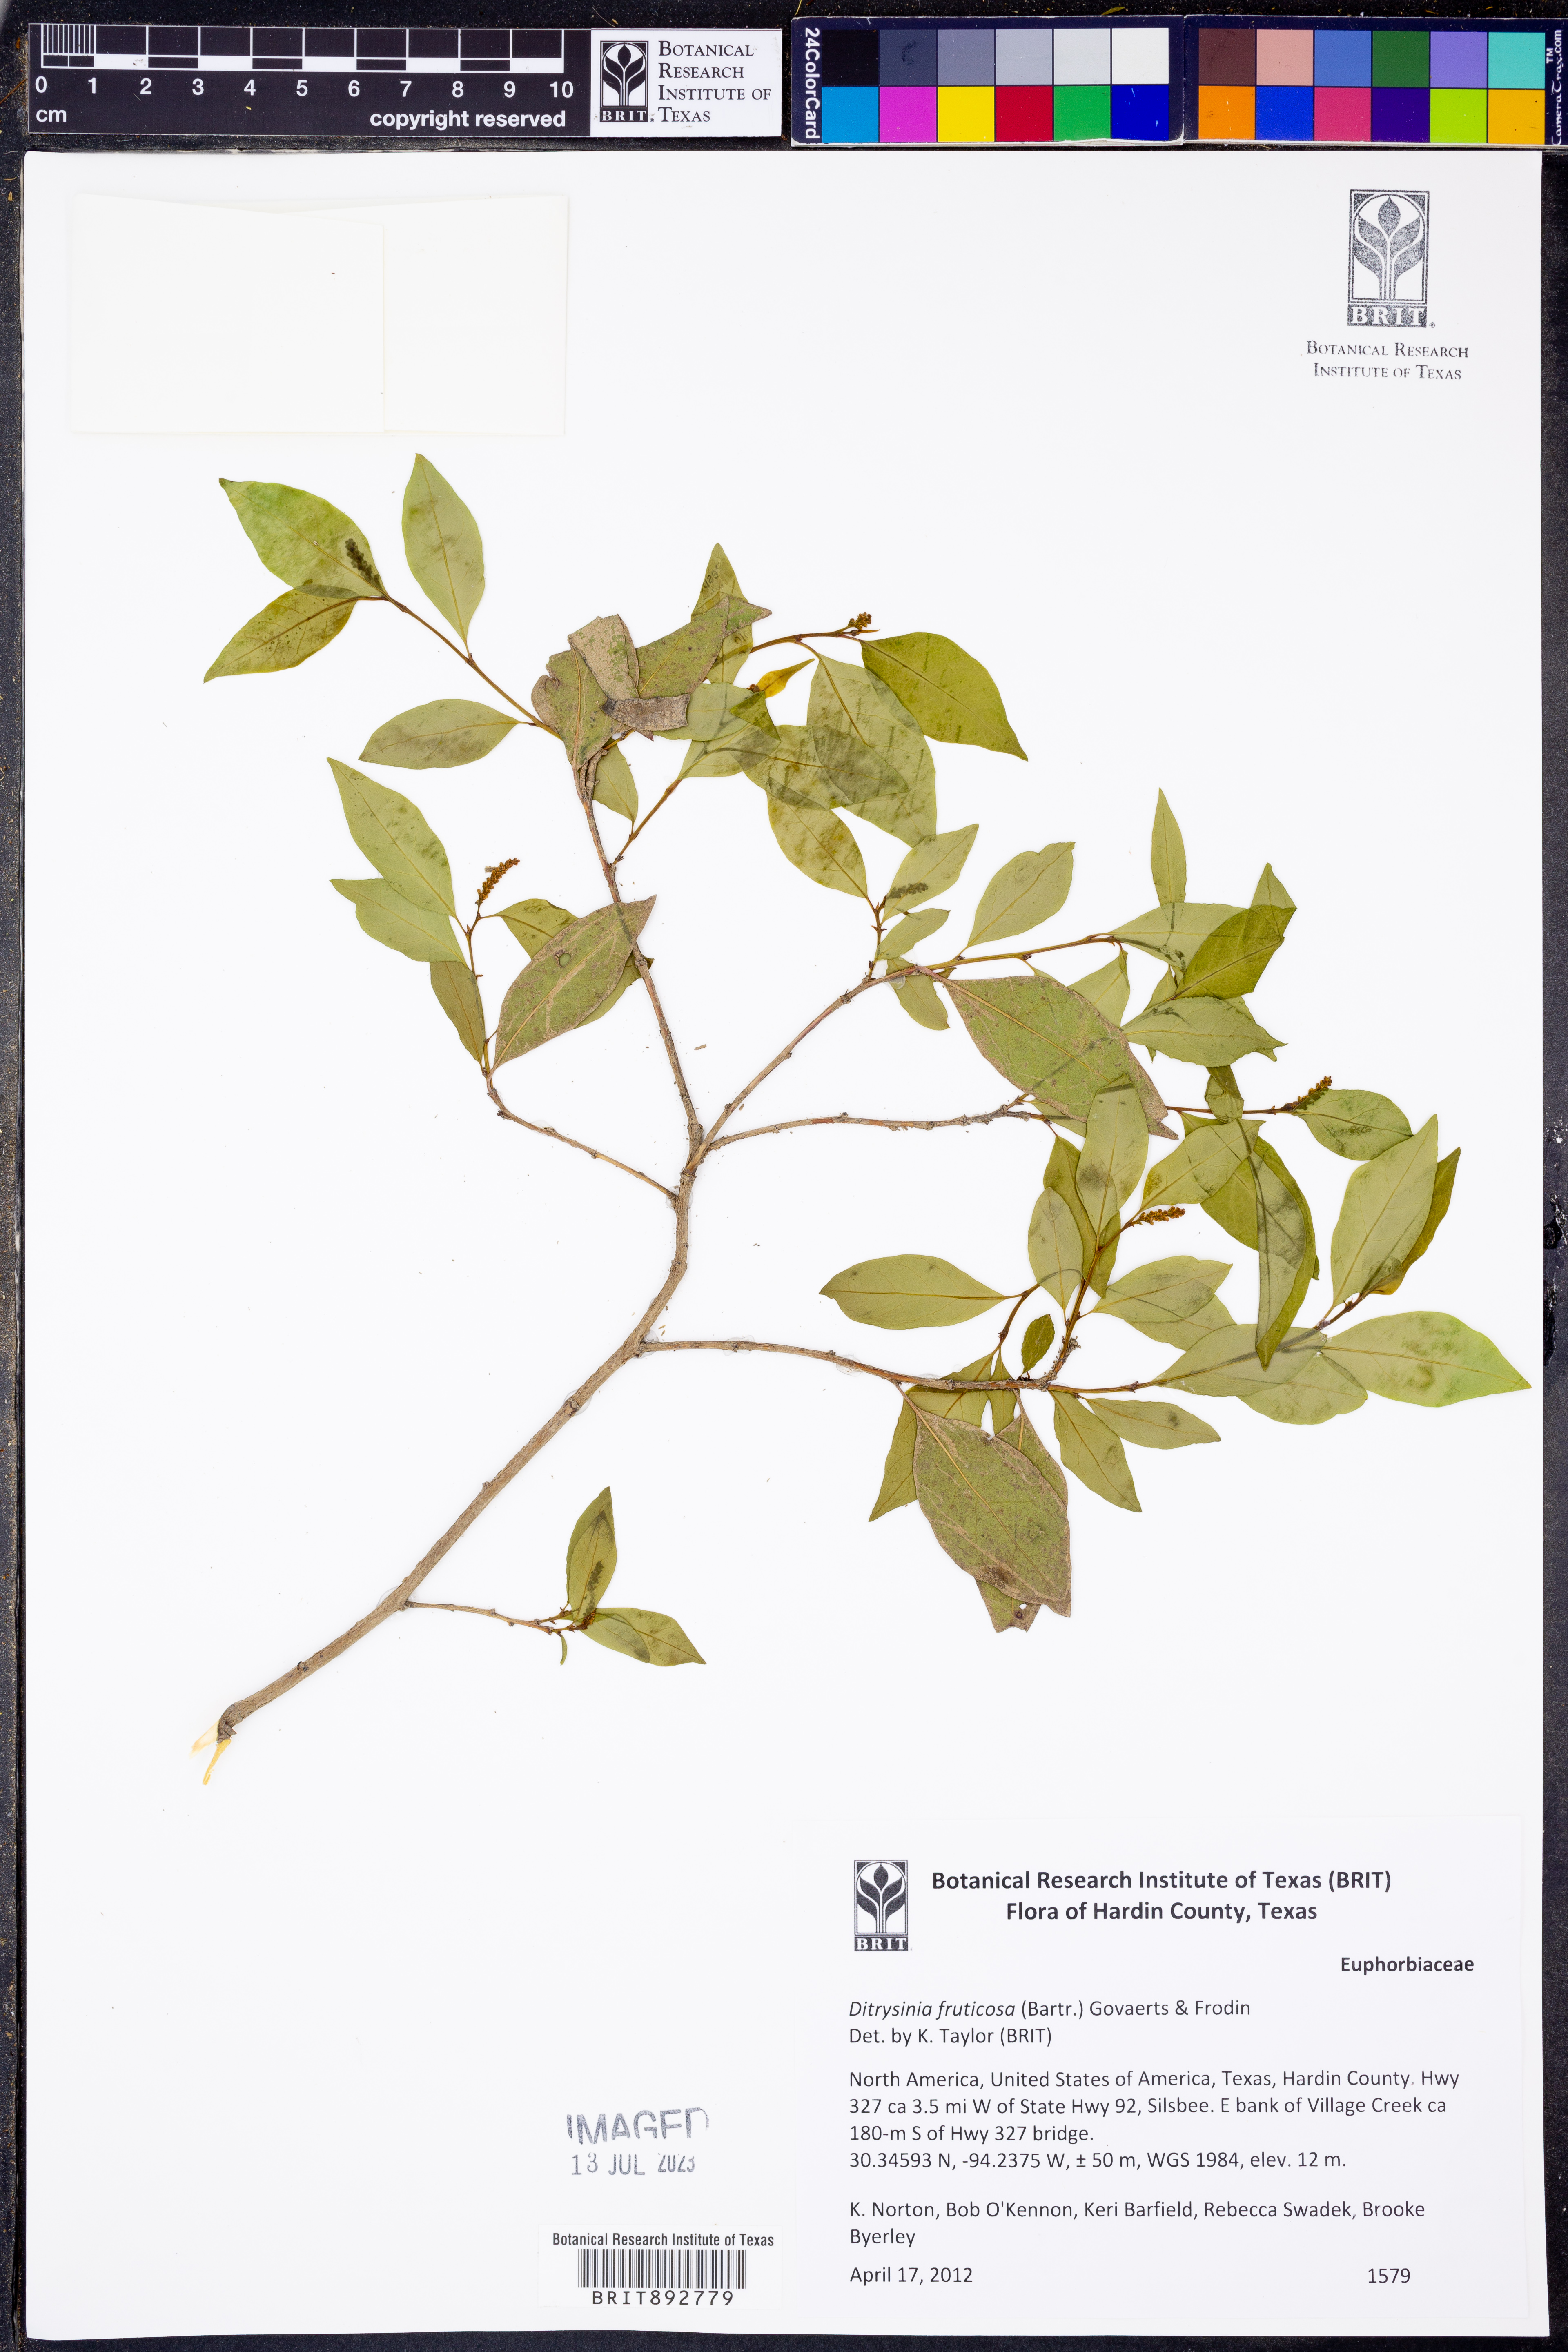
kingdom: Plantae
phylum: Tracheophyta
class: Magnoliopsida
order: Malpighiales
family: Euphorbiaceae
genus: Ditrysinia
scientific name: Ditrysinia fruticosa
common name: Gulf sebastian-bush
